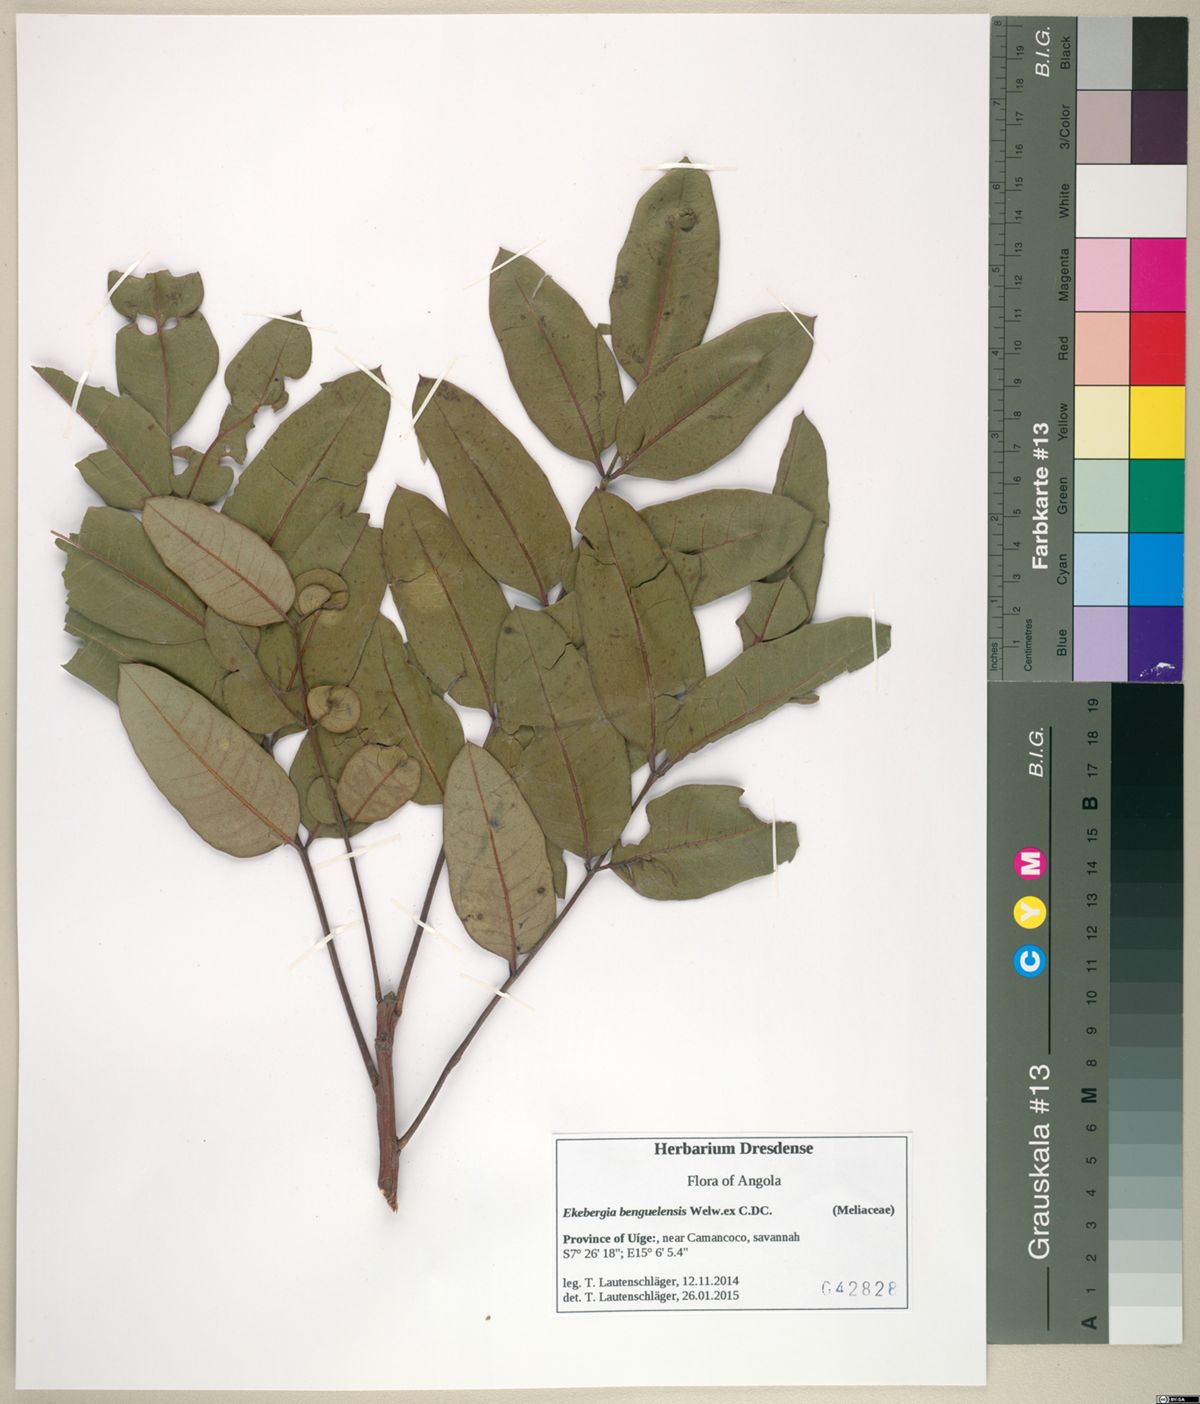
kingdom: Plantae
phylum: Tracheophyta
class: Magnoliopsida
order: Sapindales
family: Meliaceae
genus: Ekebergia
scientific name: Ekebergia benguelensis
